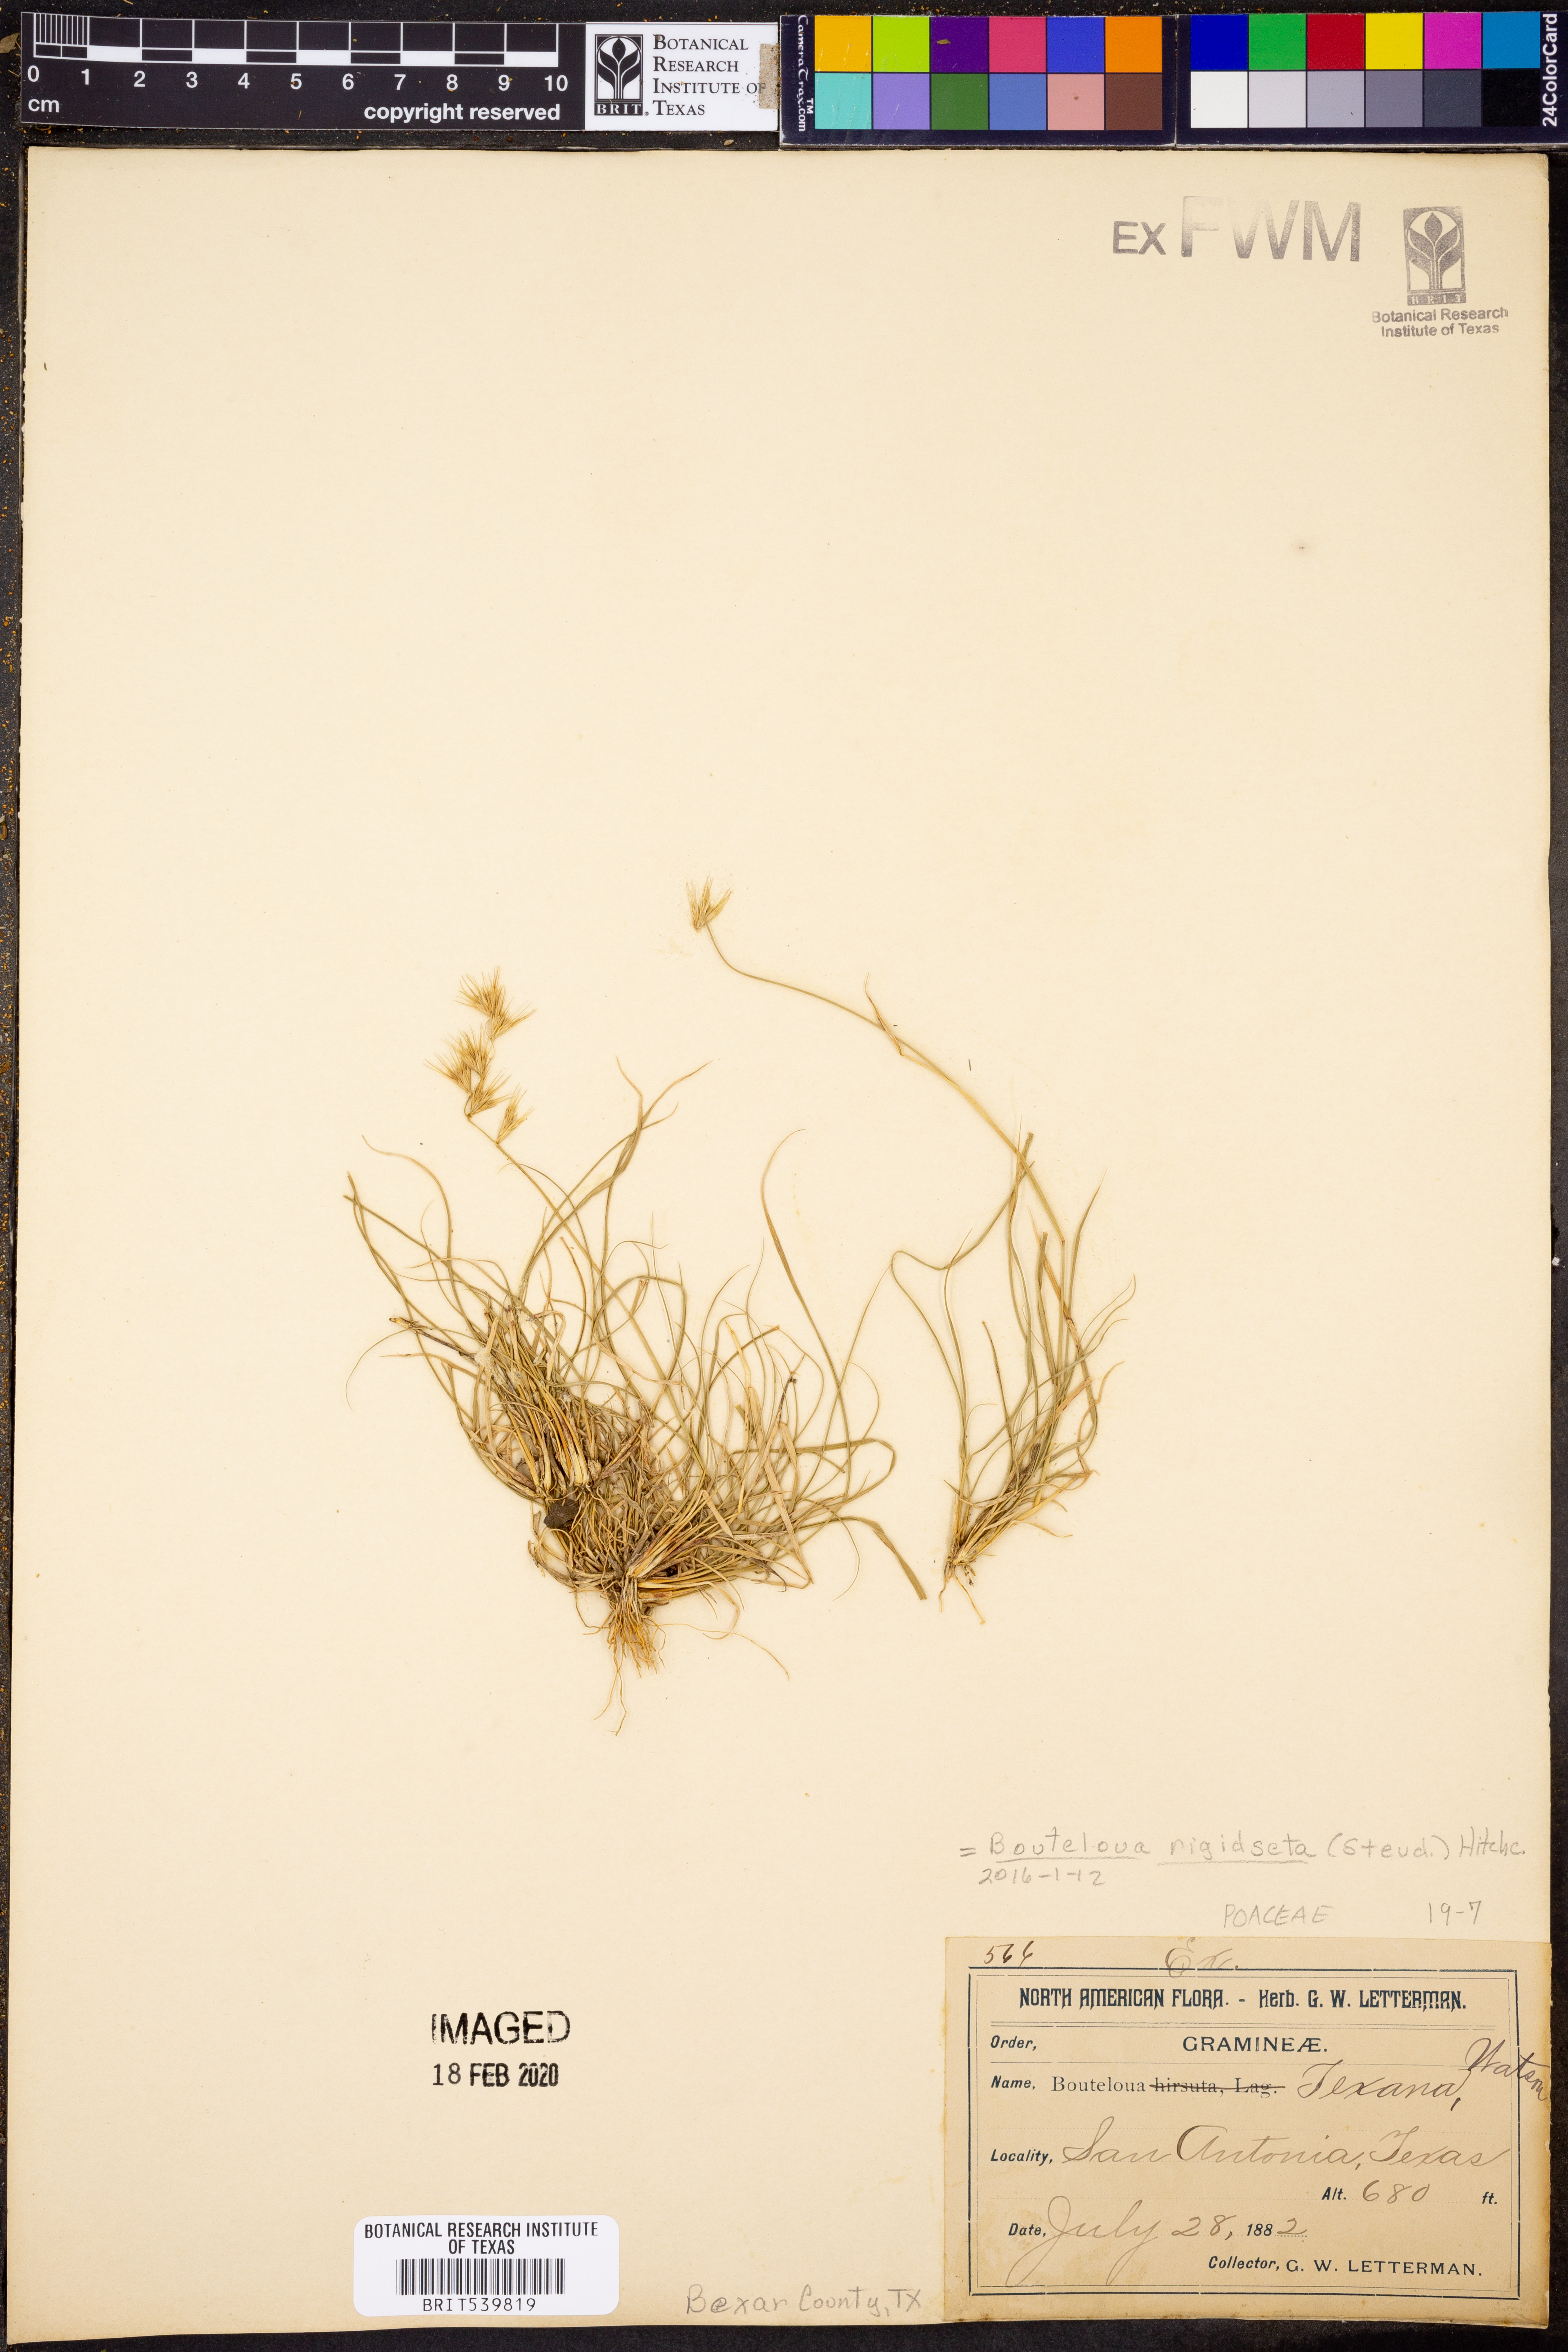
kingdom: Plantae
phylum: Tracheophyta
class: Liliopsida
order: Poales
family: Poaceae
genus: Bouteloua
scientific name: Bouteloua rigidiseta
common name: Texas grama
